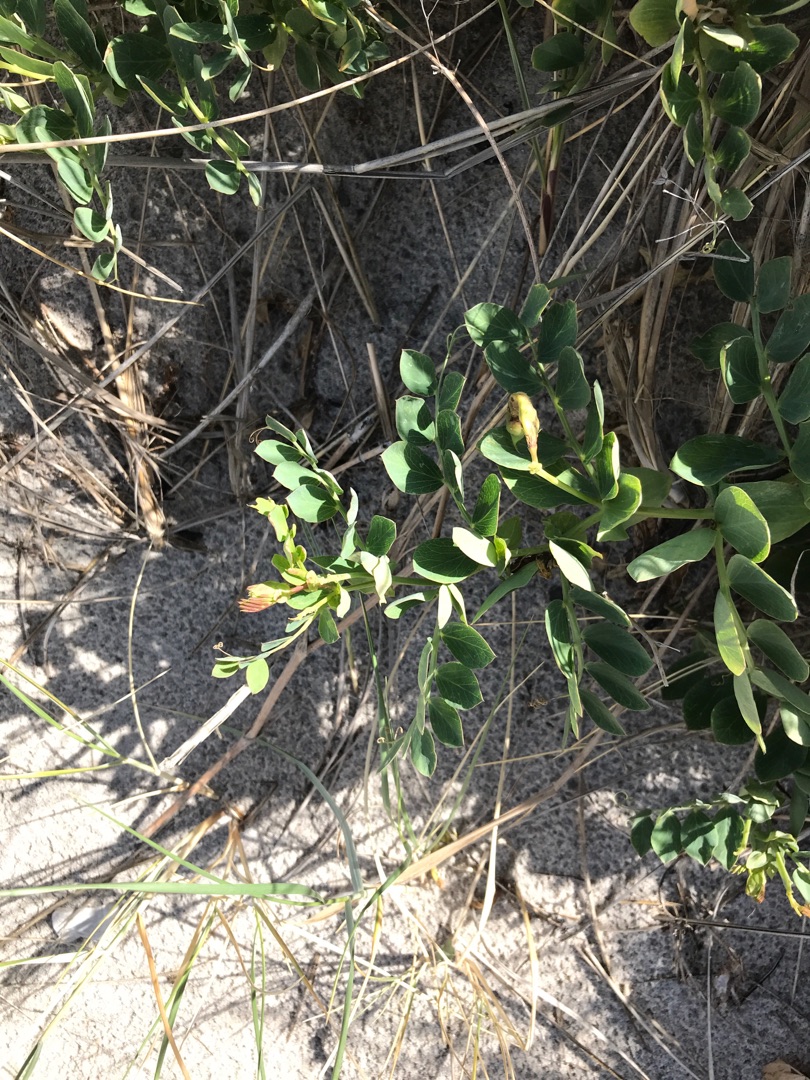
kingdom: Plantae
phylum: Tracheophyta
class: Magnoliopsida
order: Fabales
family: Fabaceae
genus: Lathyrus
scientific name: Lathyrus japonicus
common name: Strand-fladbælg
